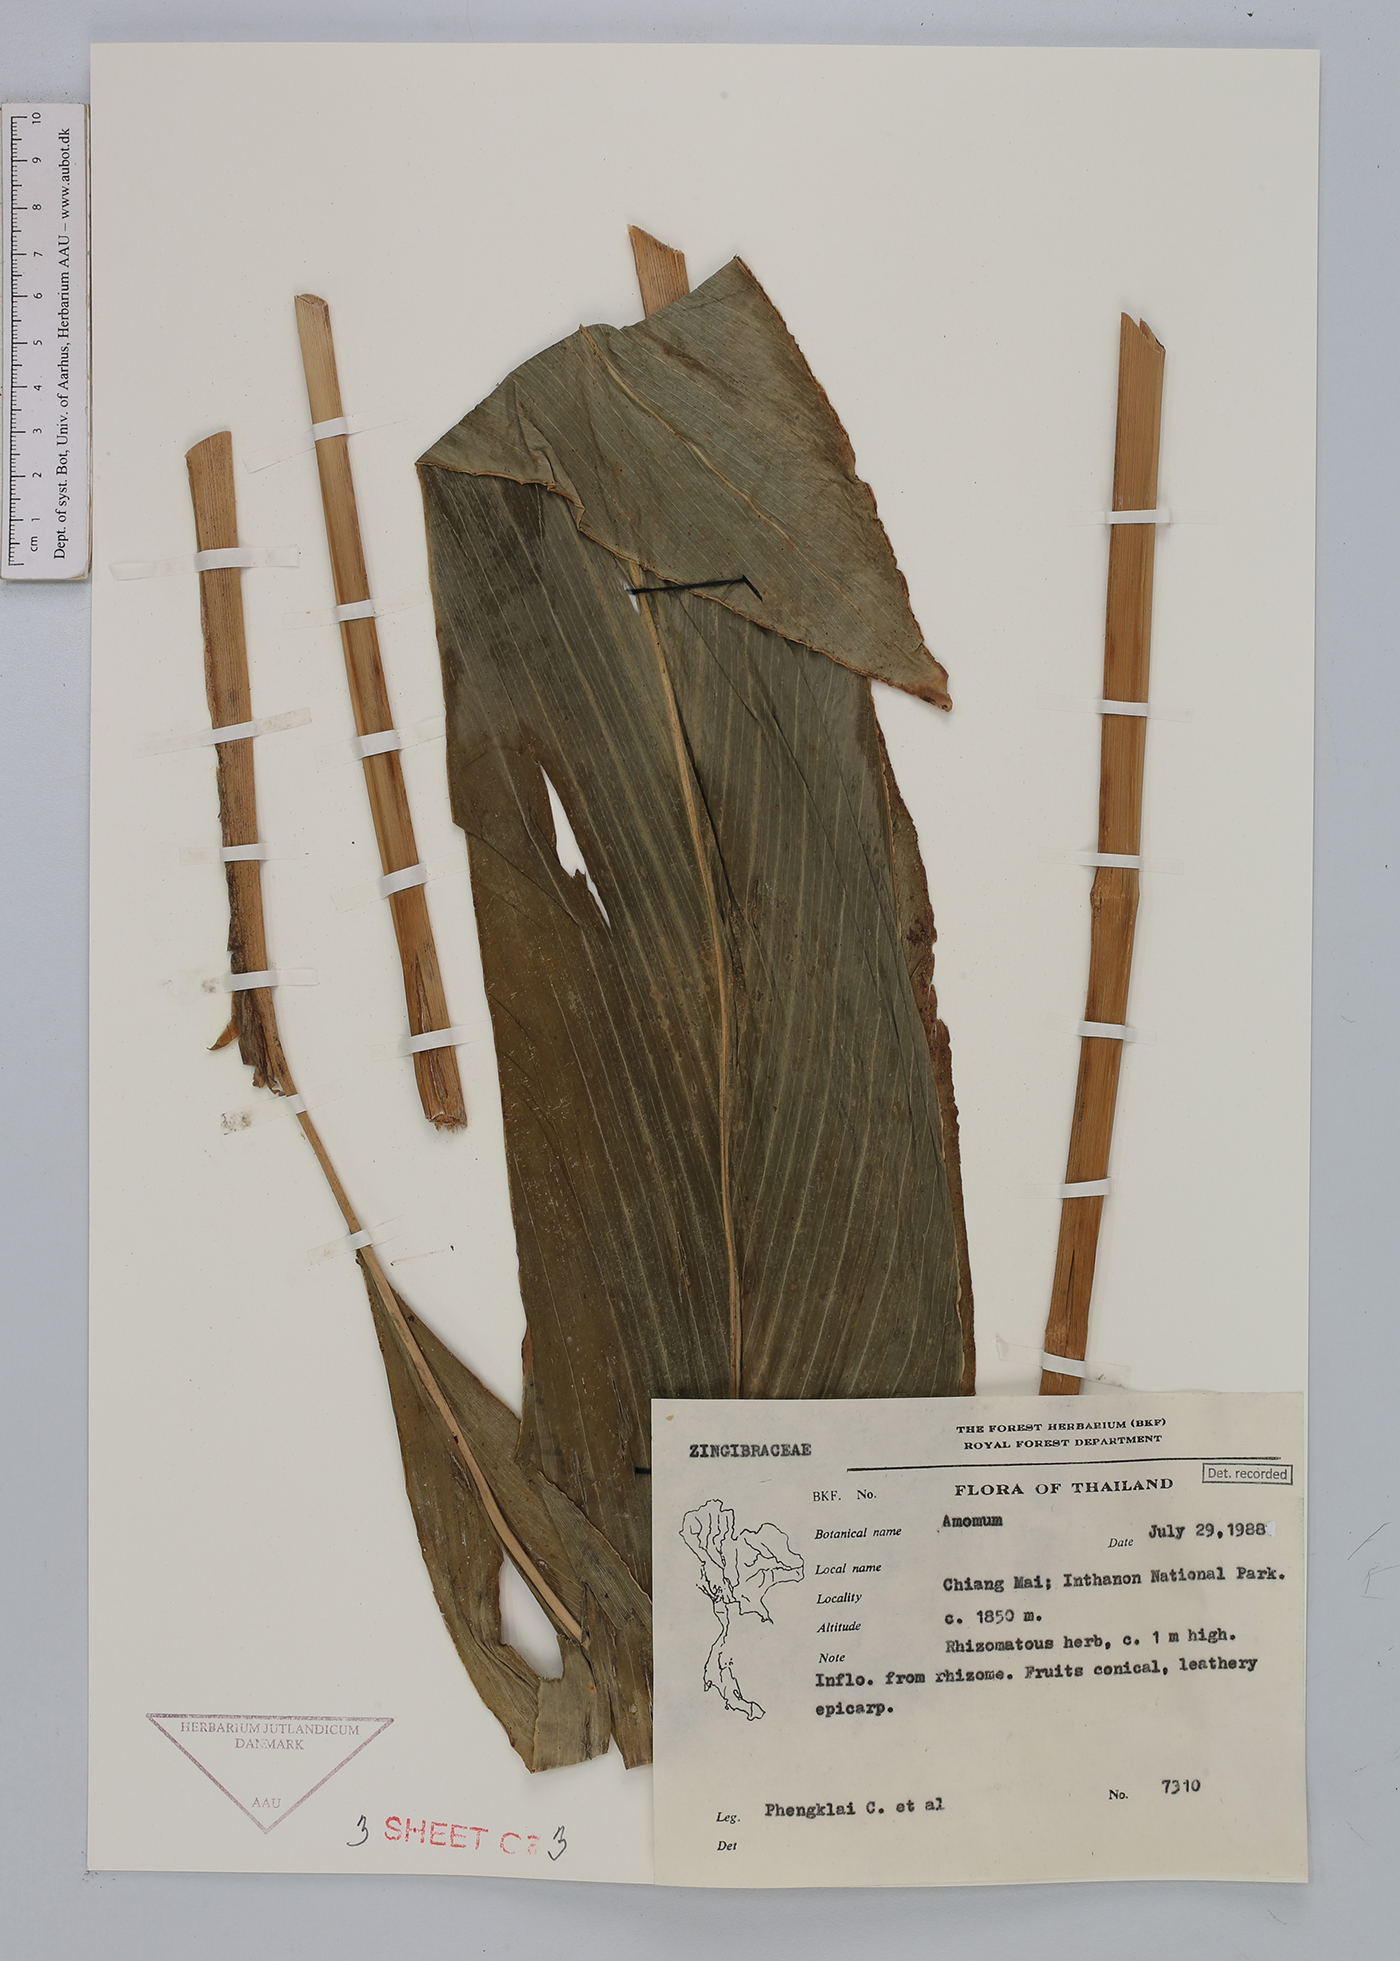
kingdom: Plantae
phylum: Tracheophyta
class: Liliopsida
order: Zingiberales
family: Zingiberaceae
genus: Amomum
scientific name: Amomum
